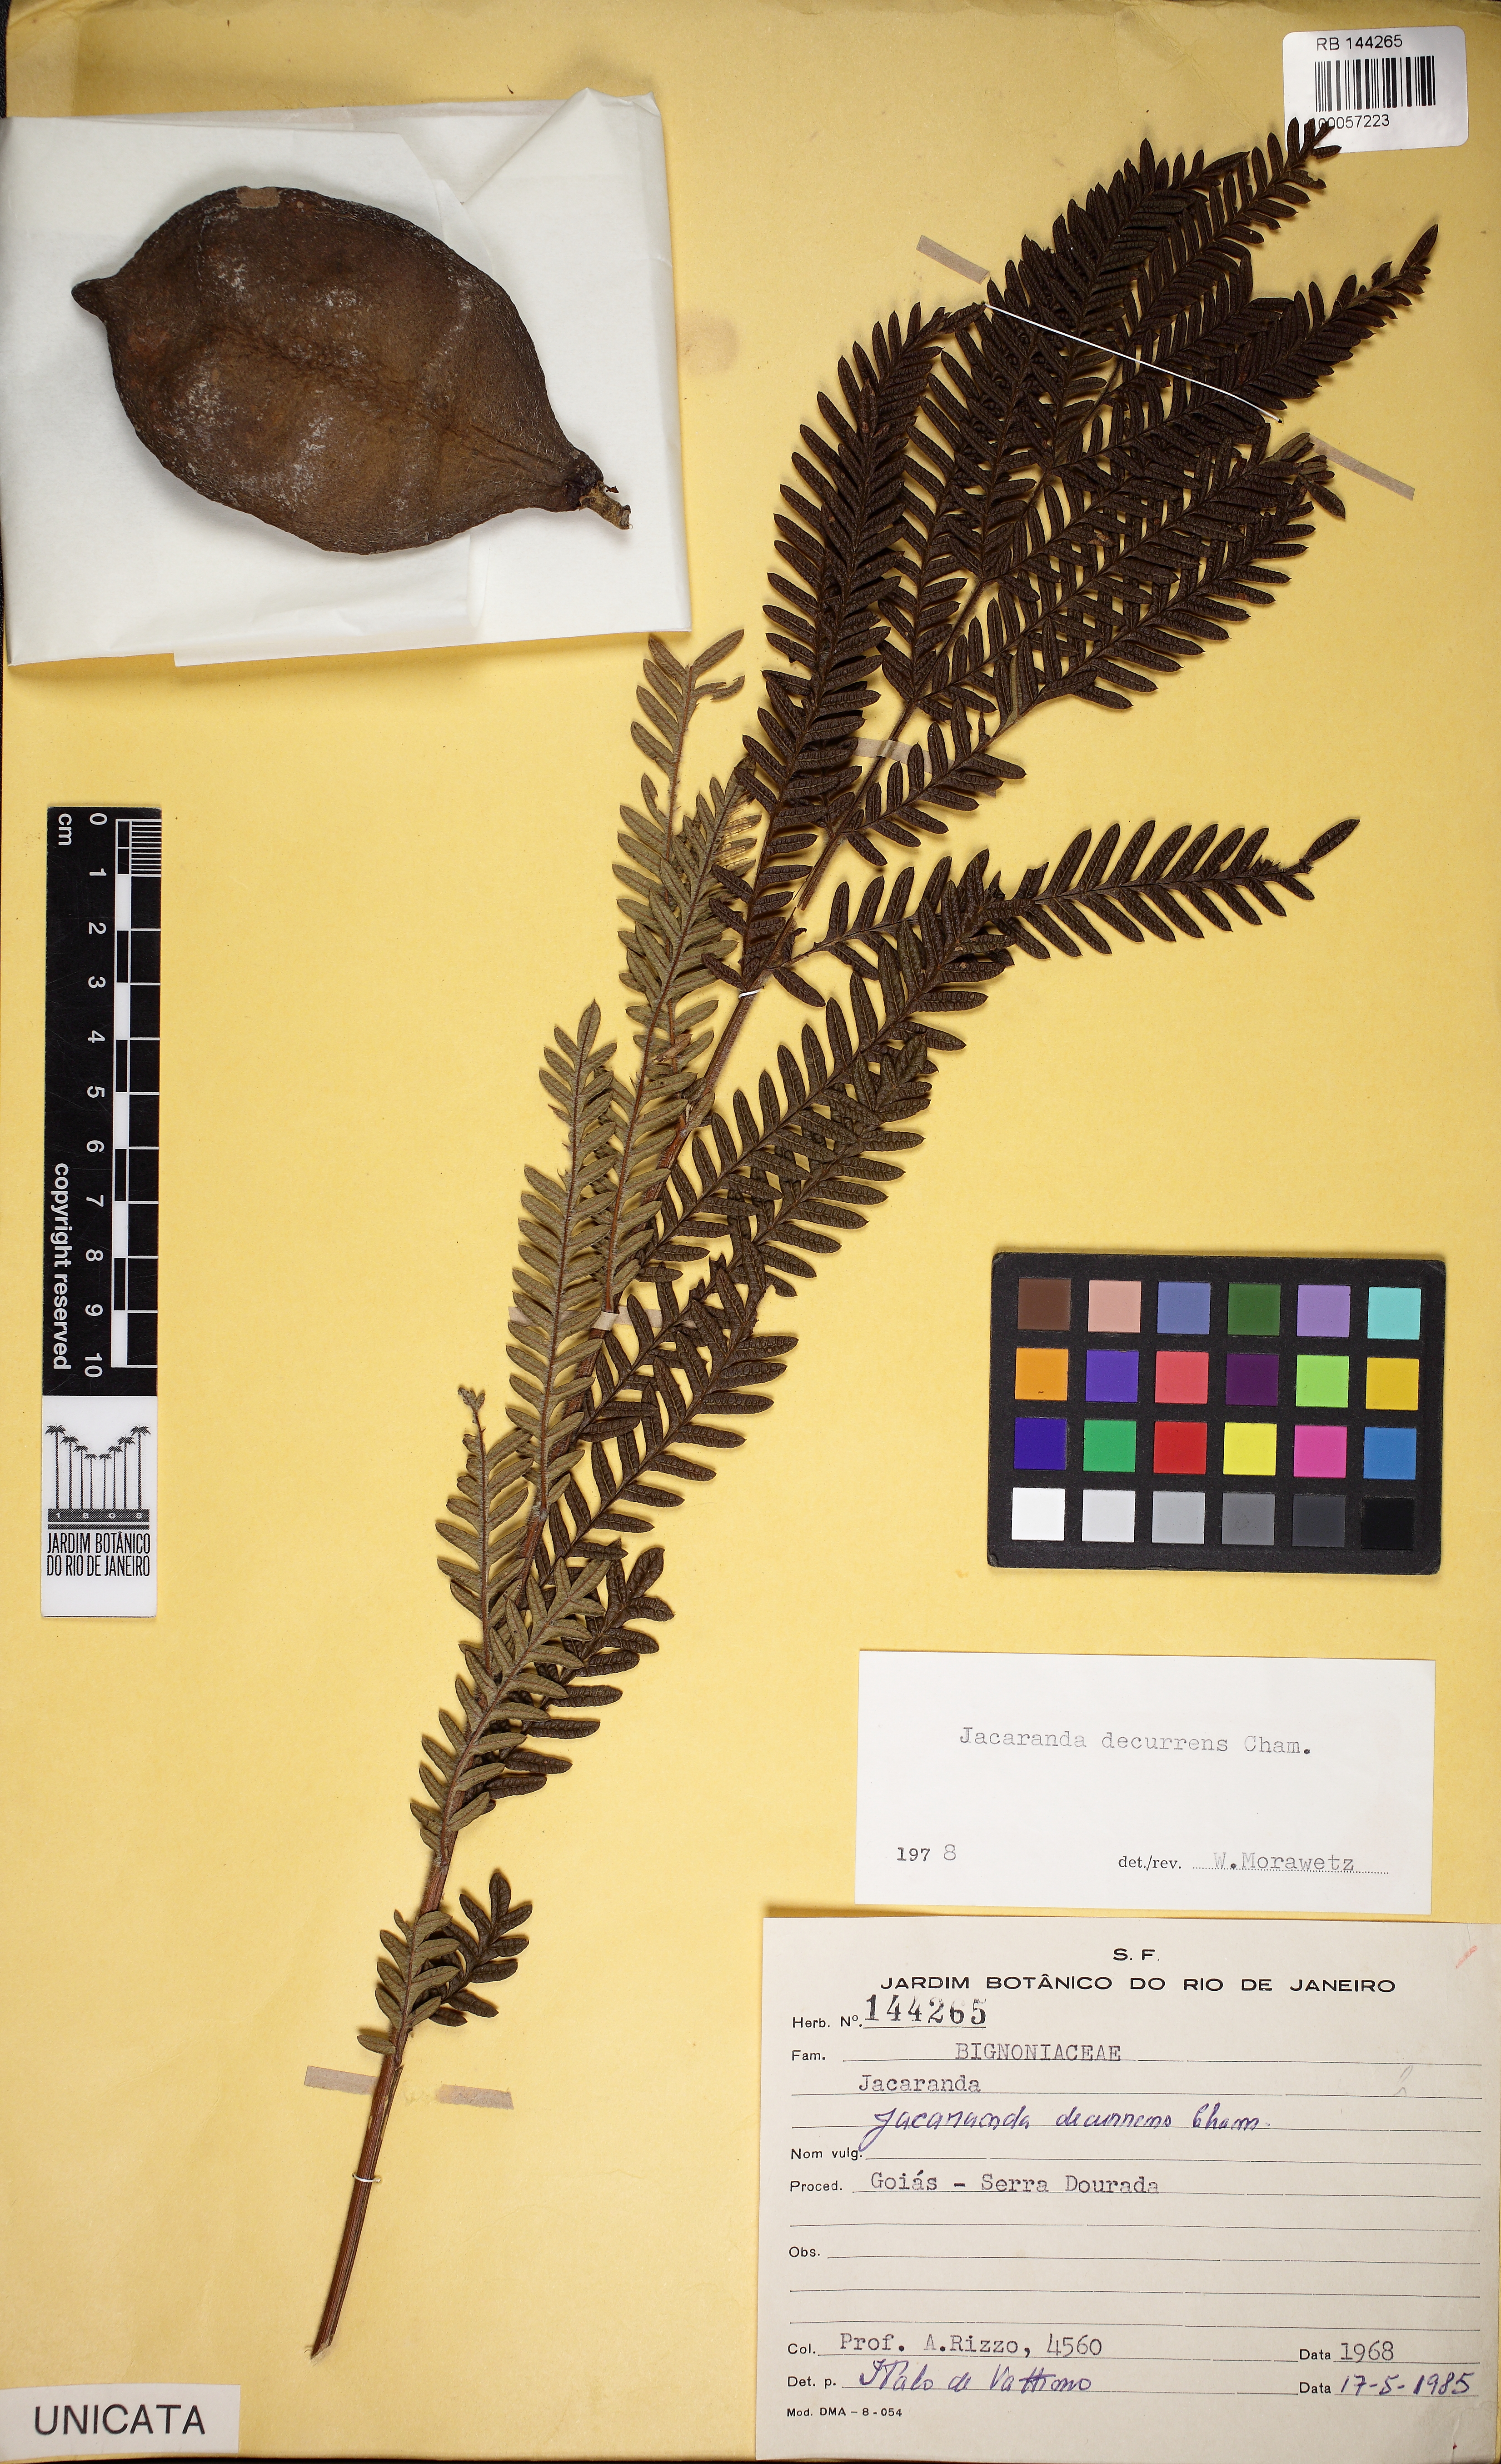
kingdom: Plantae
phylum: Tracheophyta
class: Magnoliopsida
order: Lamiales
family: Bignoniaceae
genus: Jacaranda
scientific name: Jacaranda decurrens
